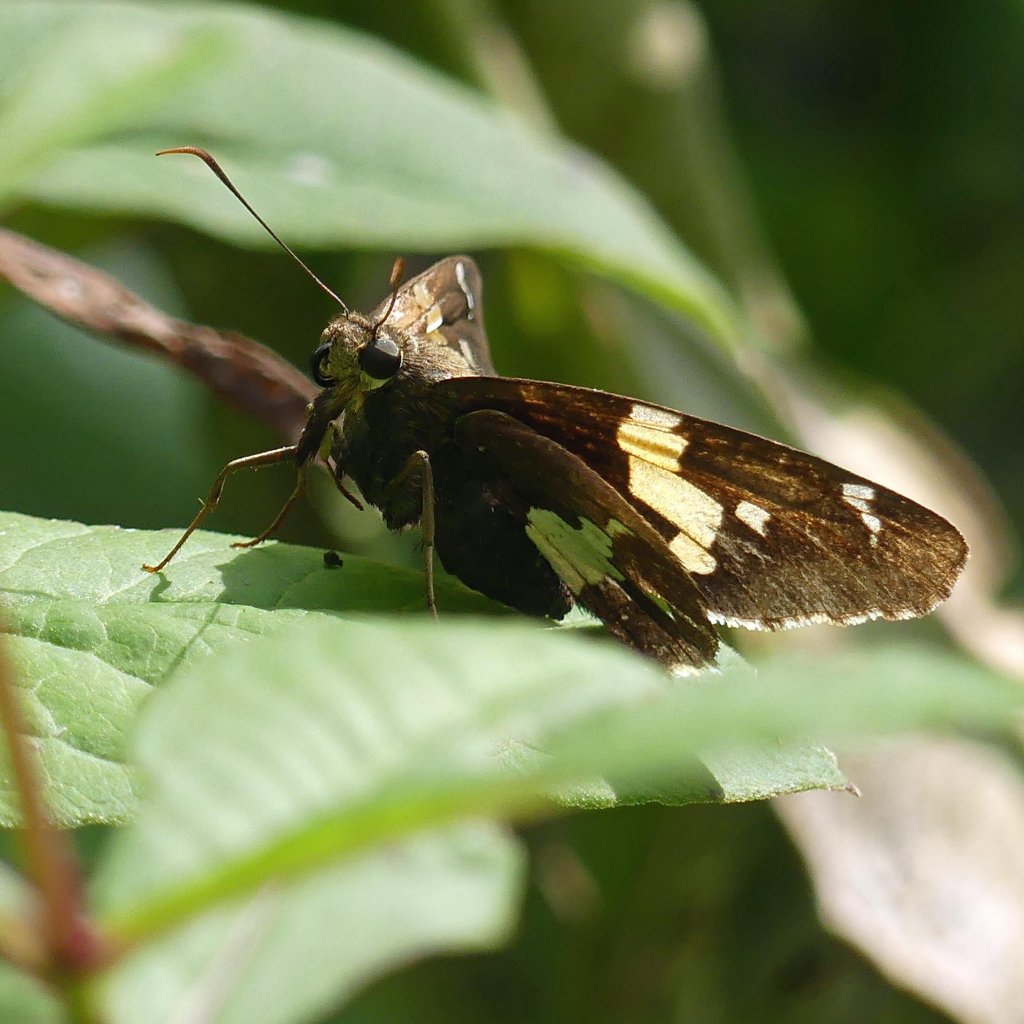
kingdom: Animalia
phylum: Arthropoda
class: Insecta
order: Lepidoptera
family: Hesperiidae
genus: Epargyreus
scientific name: Epargyreus clarus
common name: Silver-spotted Skipper
